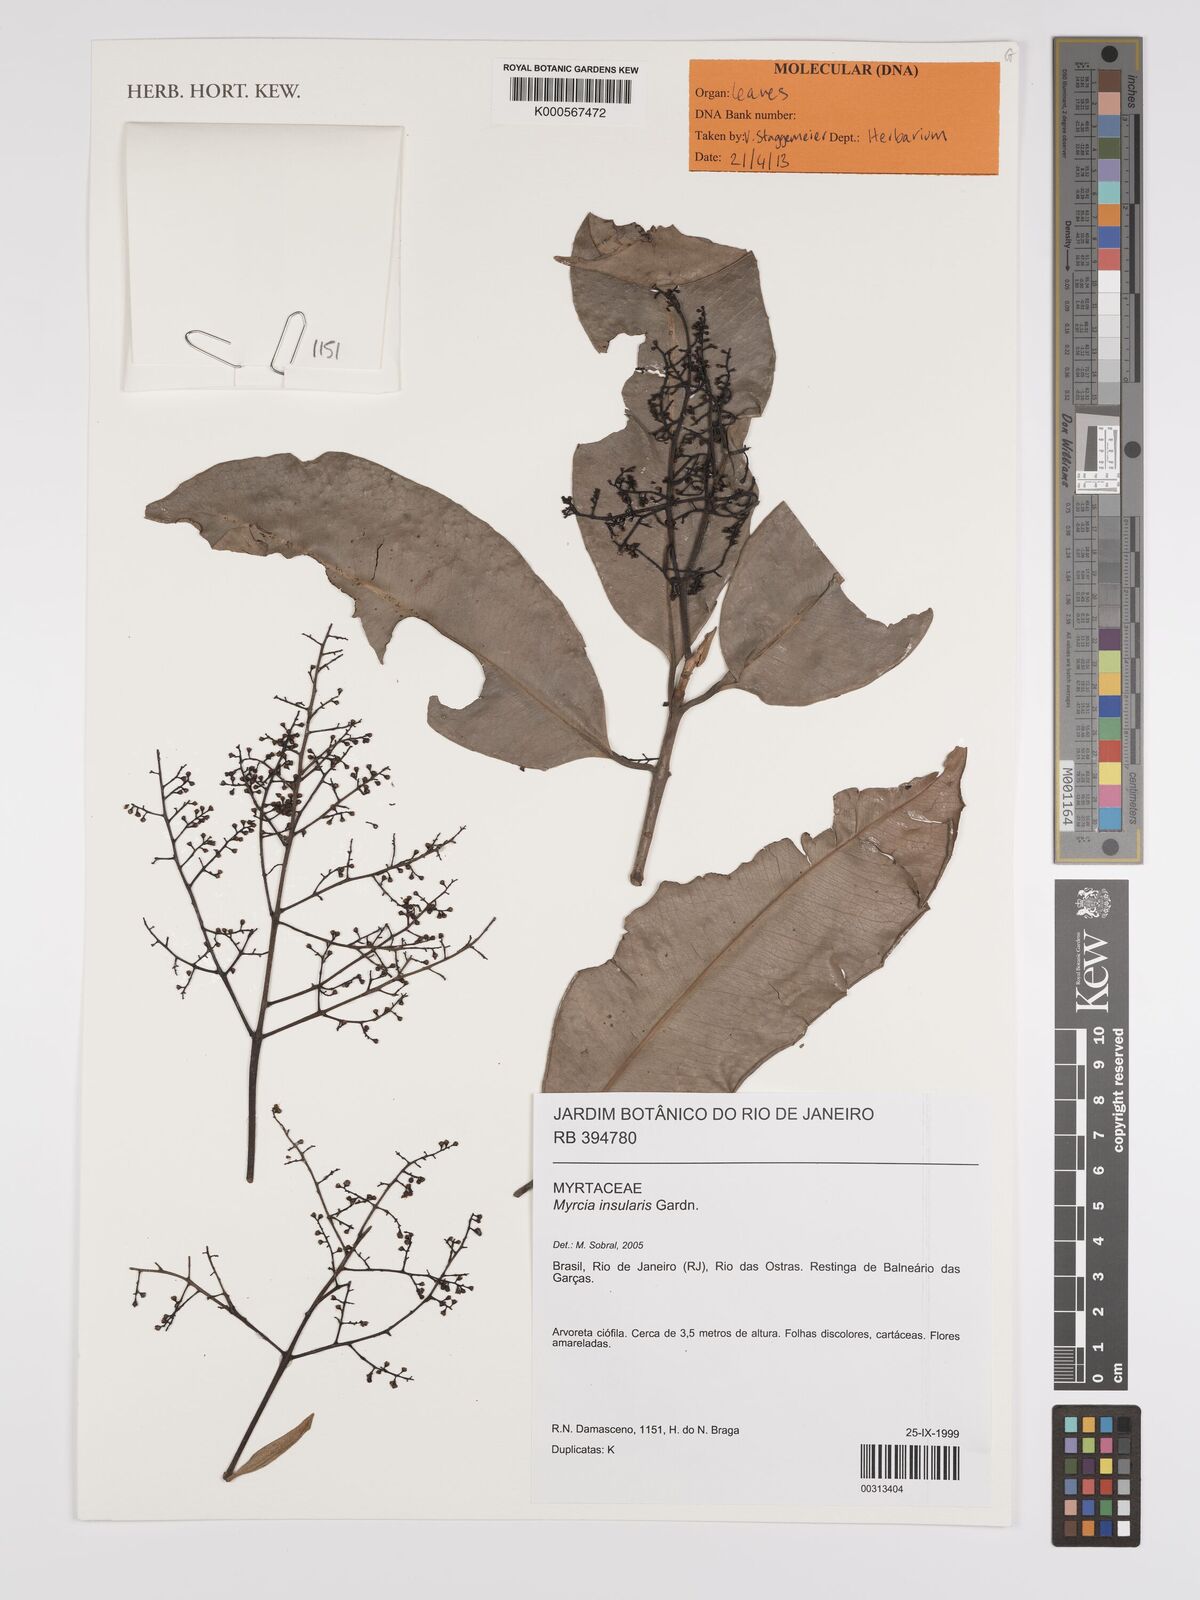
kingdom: Plantae
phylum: Tracheophyta
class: Magnoliopsida
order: Myrtales
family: Myrtaceae
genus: Myrcia
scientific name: Myrcia insularis
